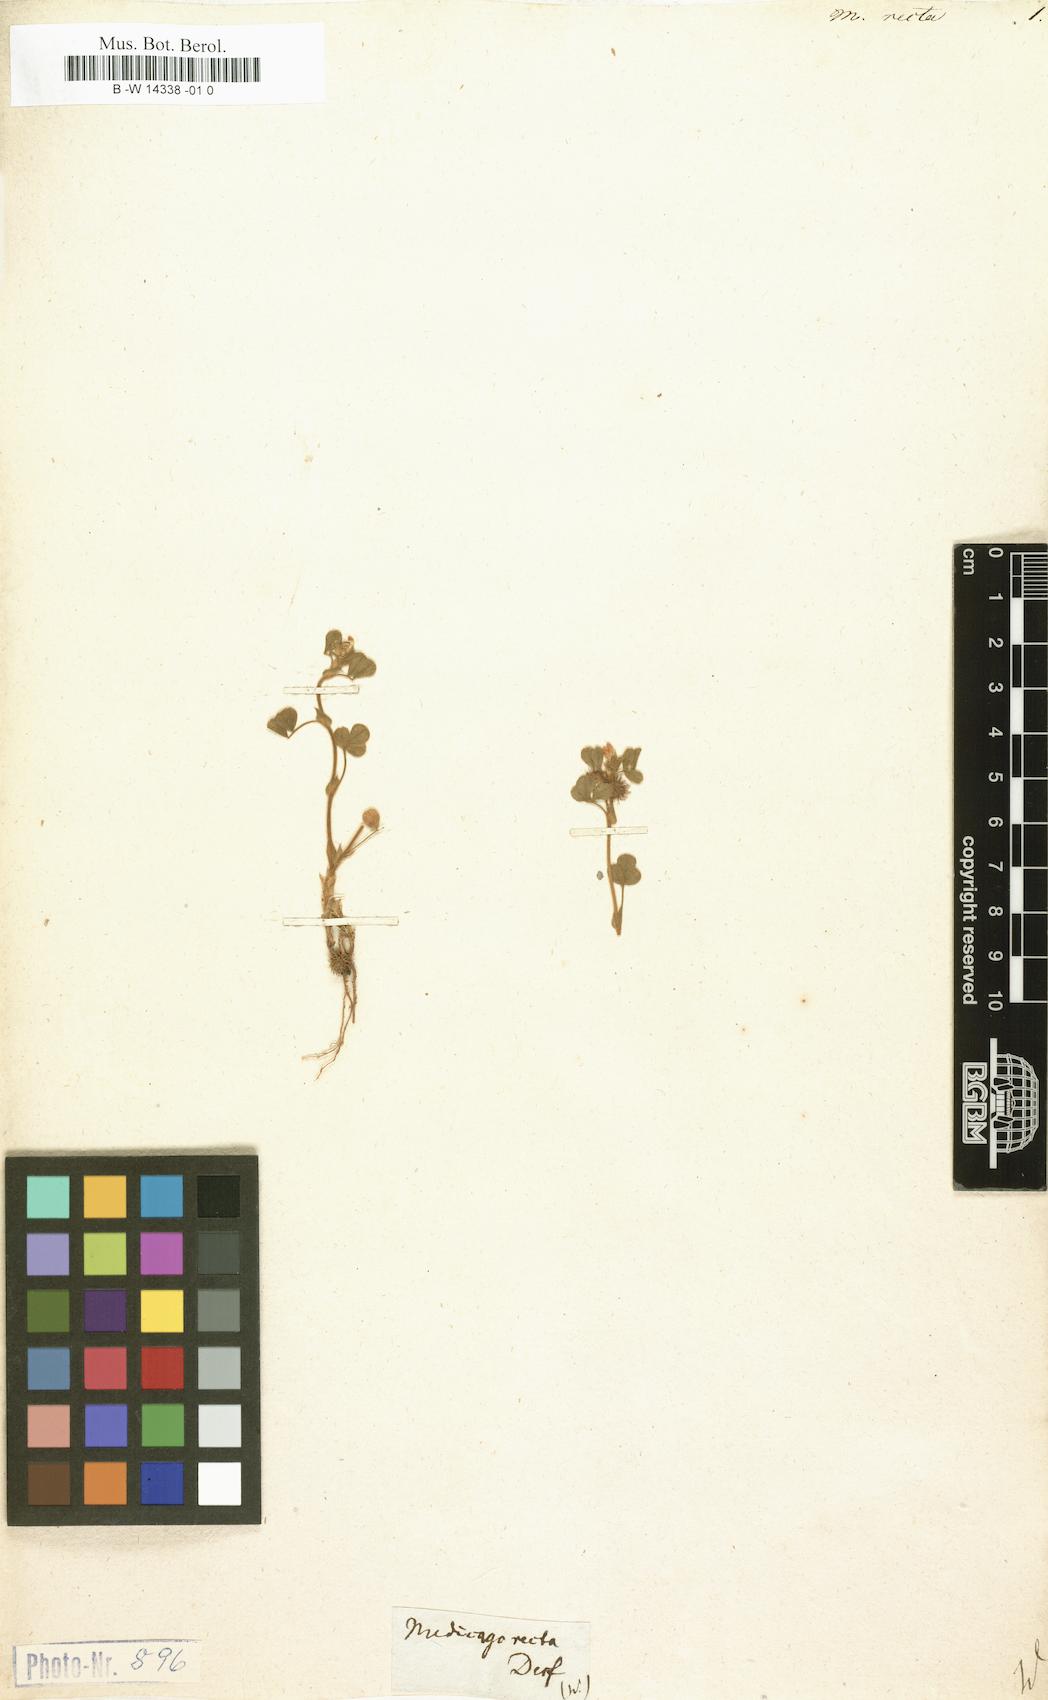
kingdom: Plantae
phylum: Tracheophyta
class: Magnoliopsida
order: Fabales
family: Fabaceae
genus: Medicago
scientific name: Medicago recta
